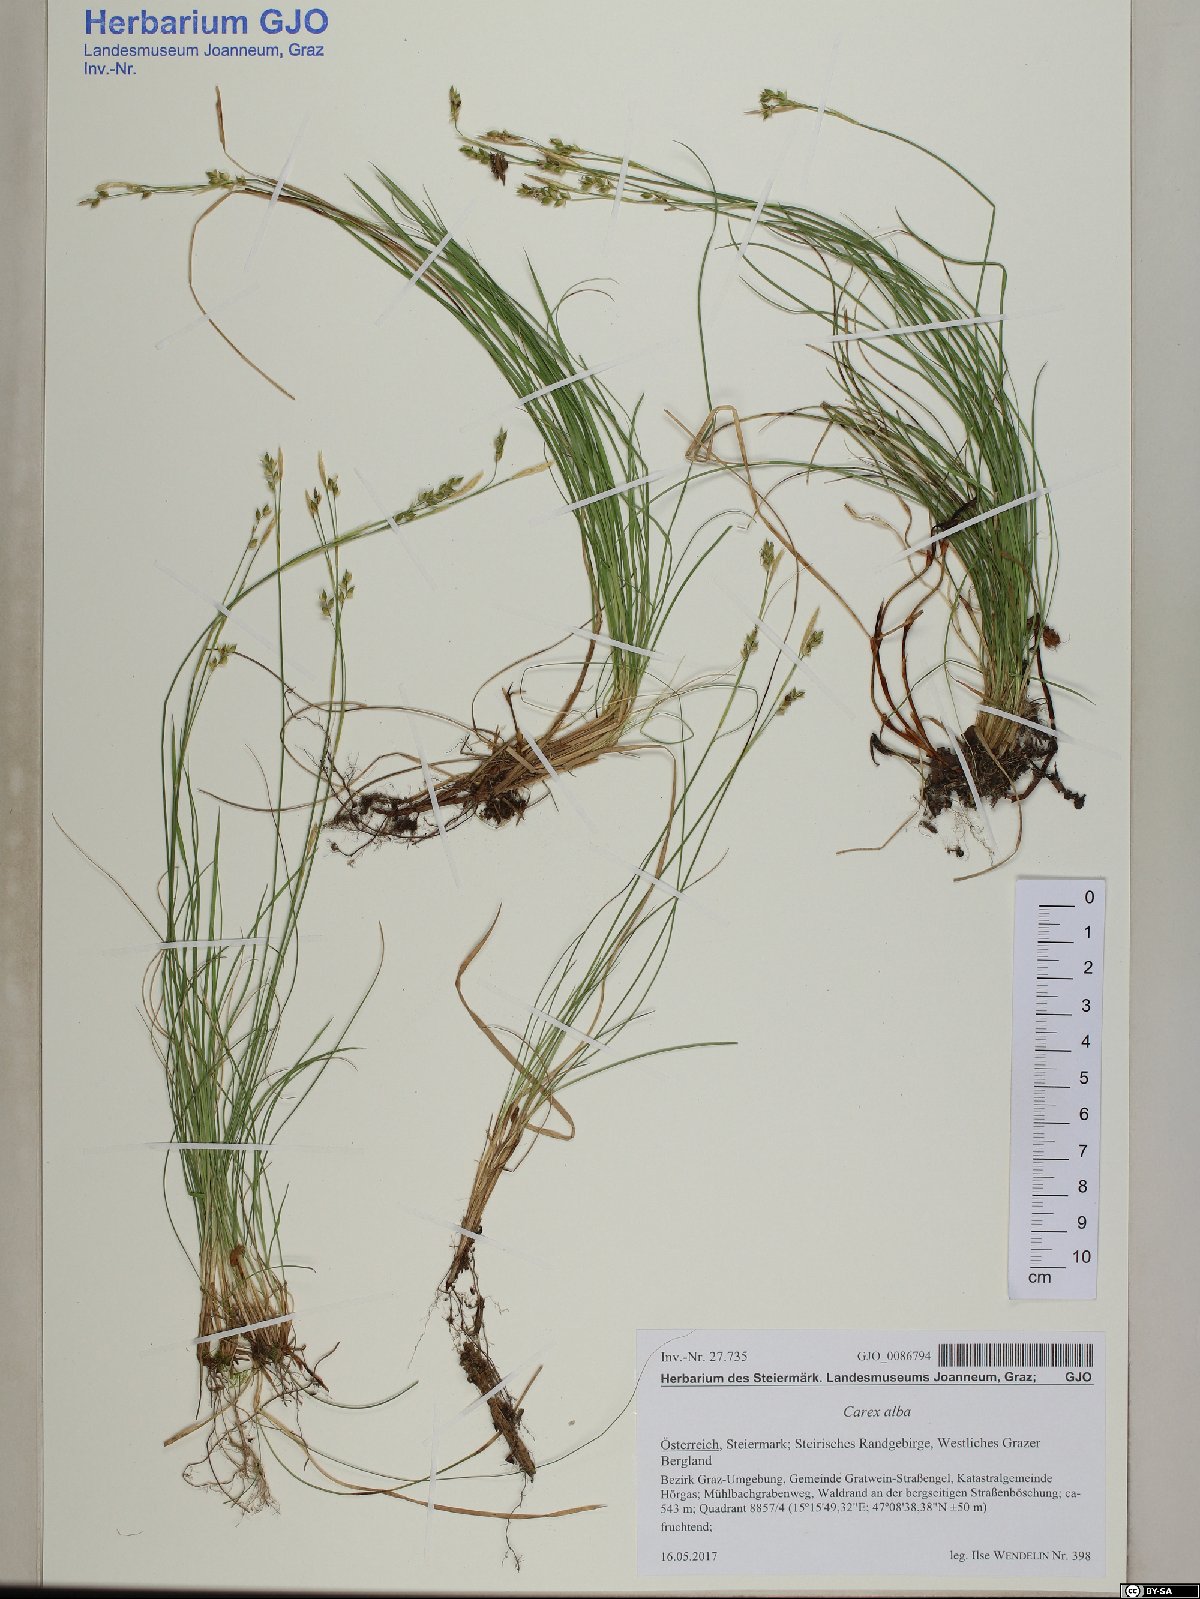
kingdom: Plantae
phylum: Tracheophyta
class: Liliopsida
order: Poales
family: Cyperaceae
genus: Carex
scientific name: Carex alba
